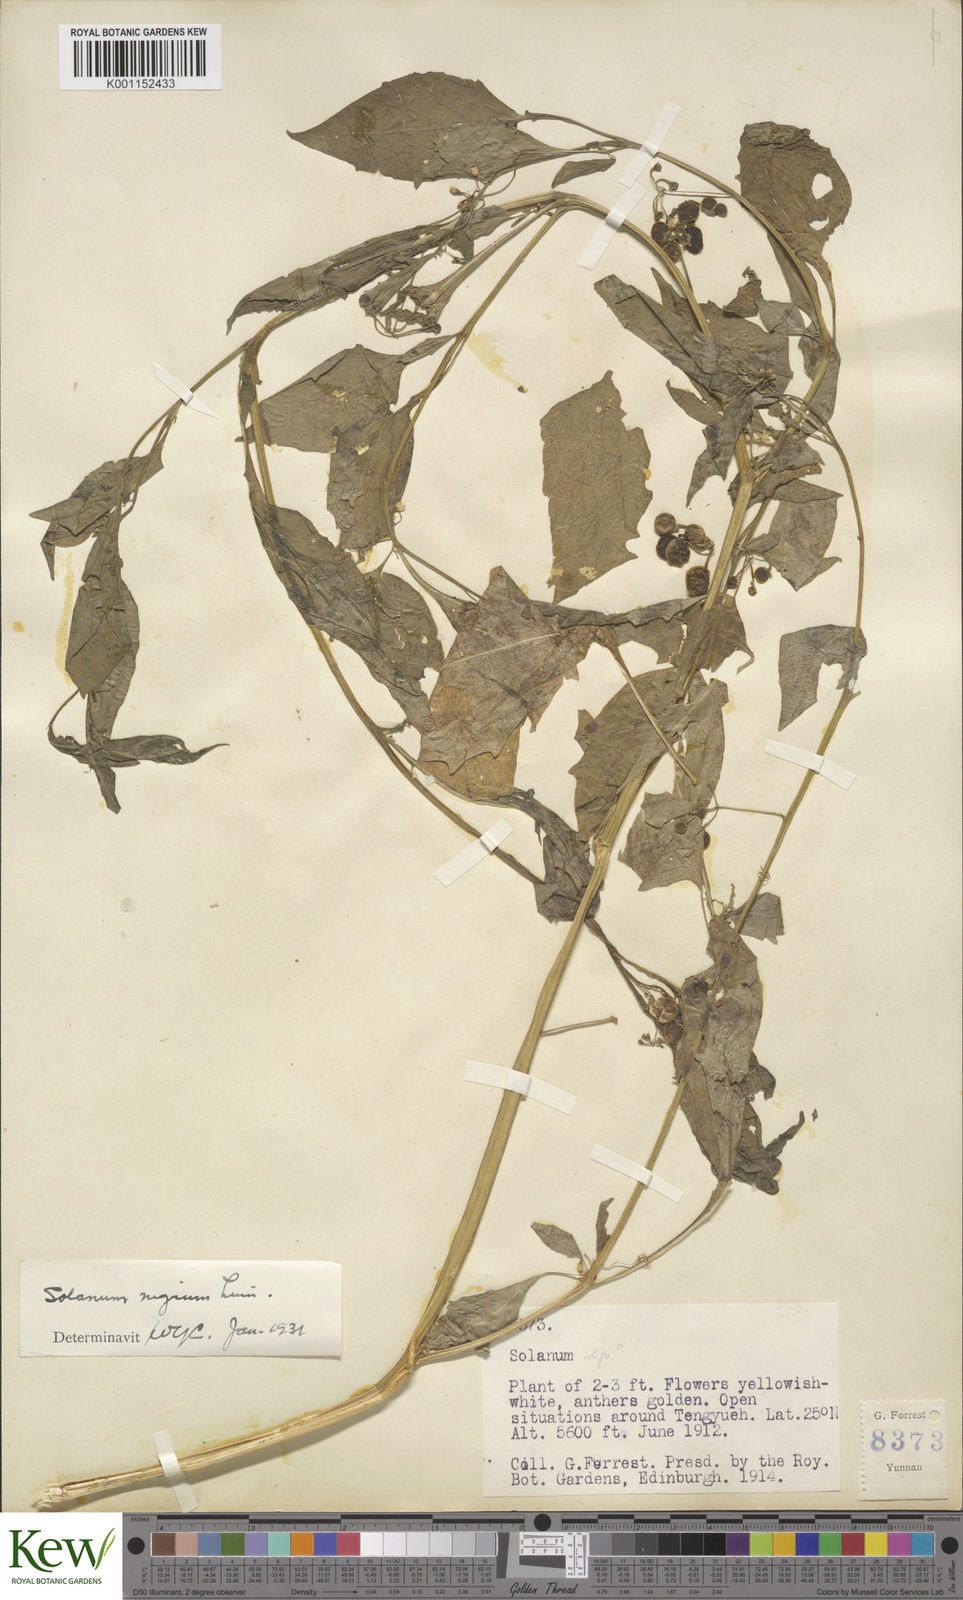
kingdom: Plantae
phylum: Tracheophyta
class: Magnoliopsida
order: Solanales
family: Solanaceae
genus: Solanum
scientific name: Solanum scabrum
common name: Garden-huckleberry
